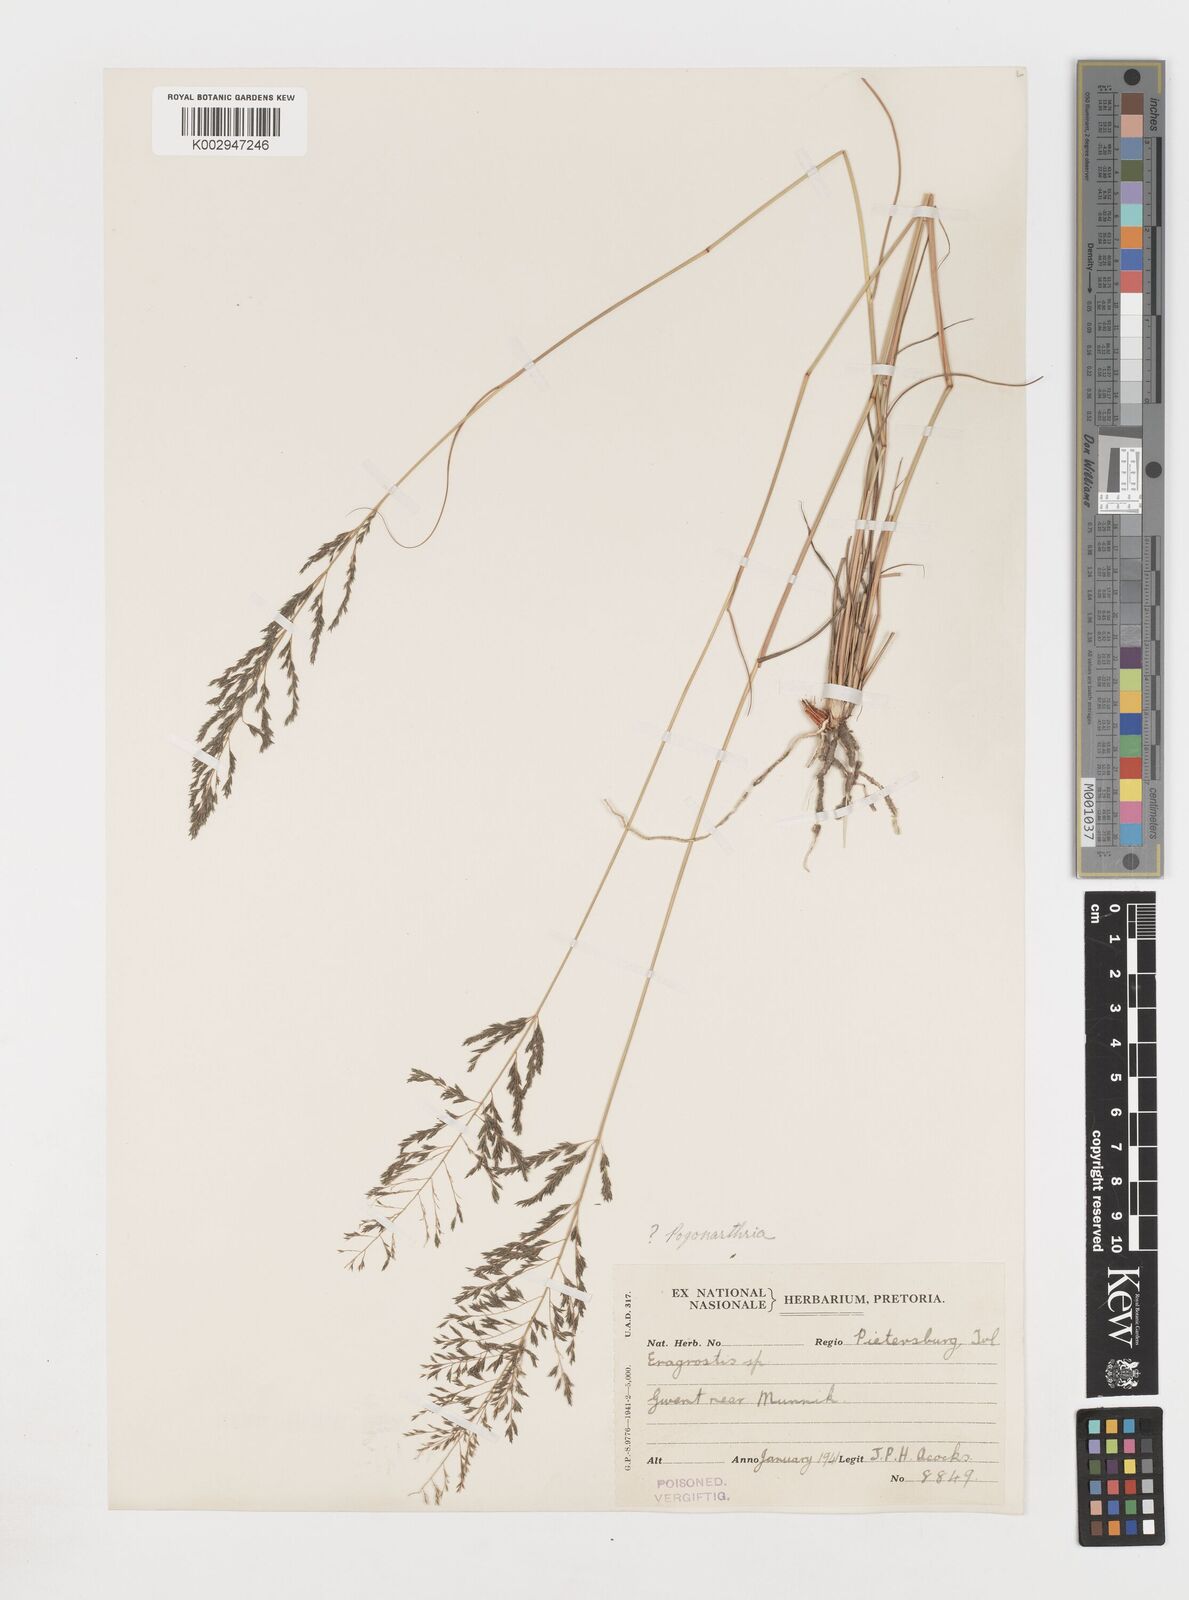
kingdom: Plantae
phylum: Tracheophyta
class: Liliopsida
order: Poales
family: Poaceae
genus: Eragrostis
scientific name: Eragrostis
